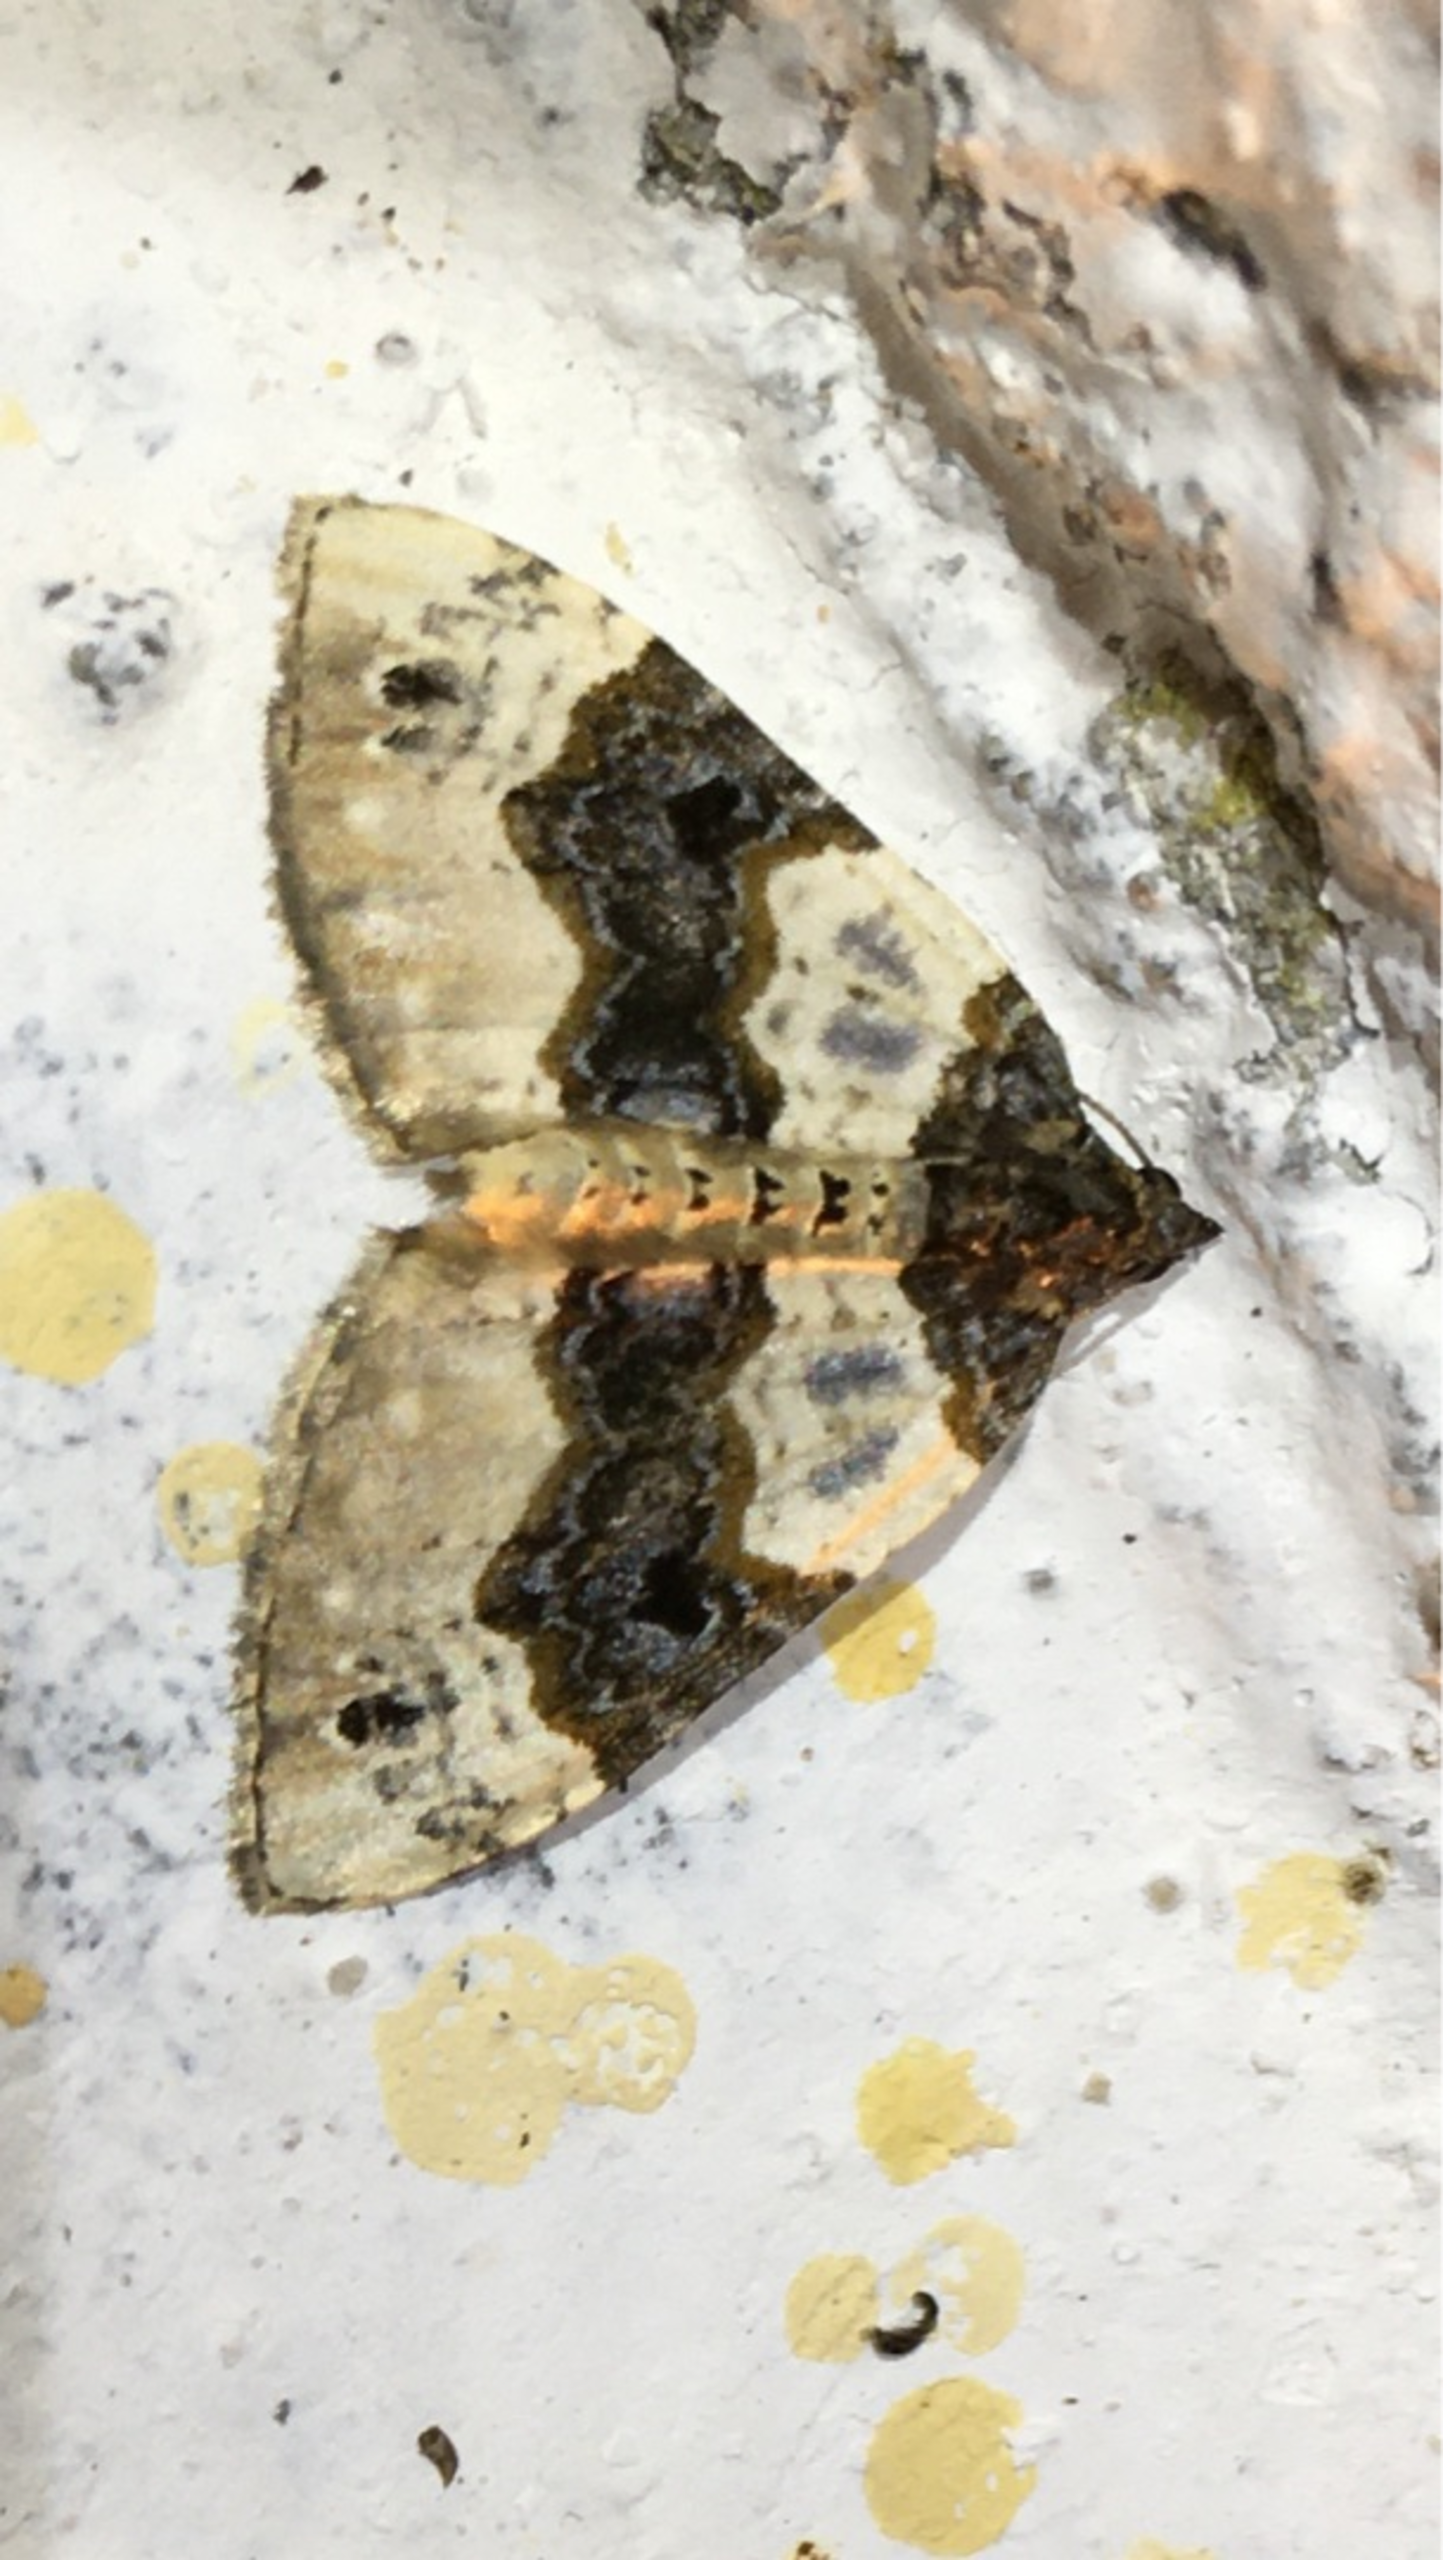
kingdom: Animalia
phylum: Arthropoda
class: Insecta
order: Lepidoptera
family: Geometridae
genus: Cosmorhoe
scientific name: Cosmorhoe ocellata
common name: Snerre-bladmåler
